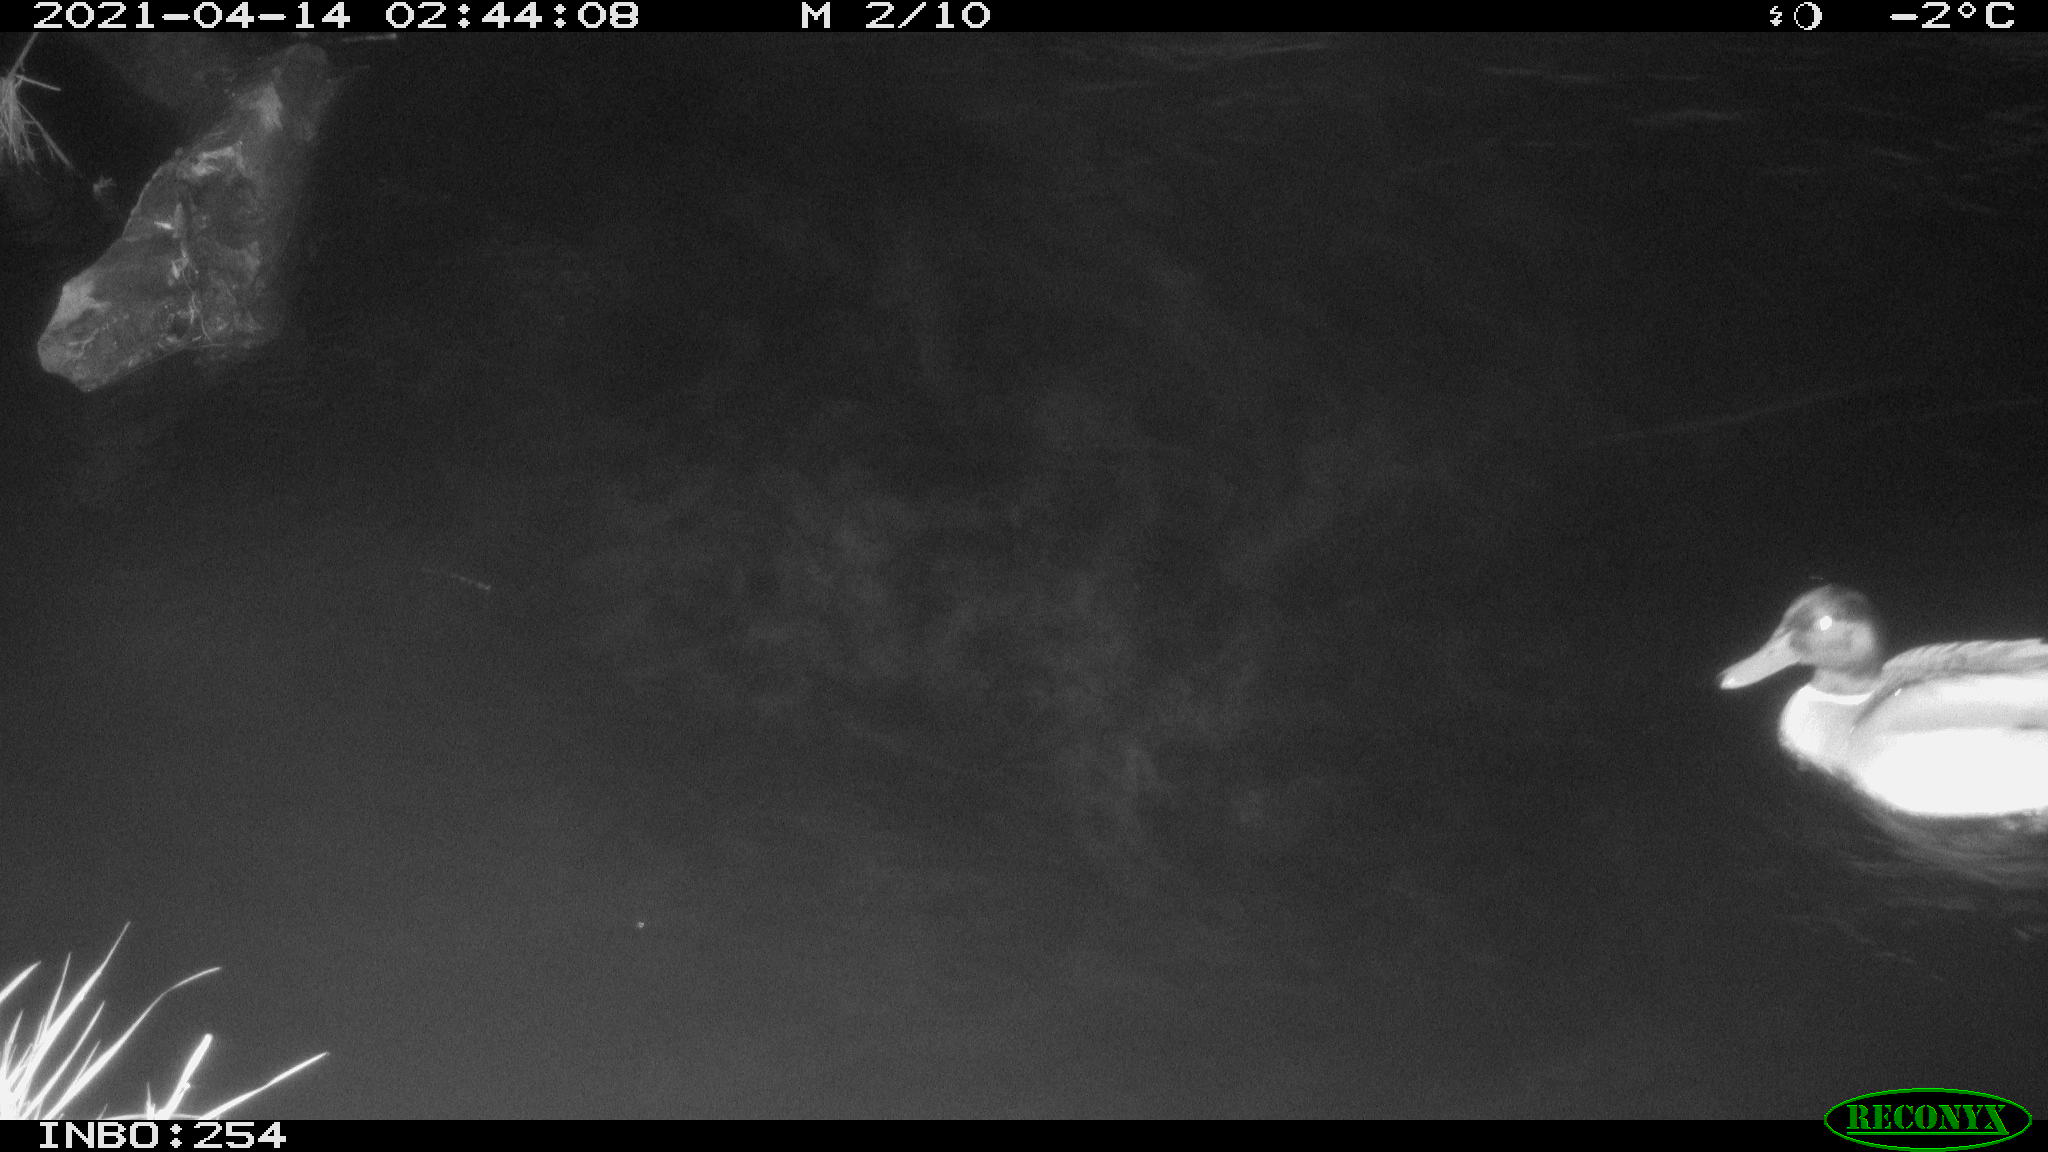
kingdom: Animalia
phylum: Chordata
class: Aves
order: Anseriformes
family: Anatidae
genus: Anas
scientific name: Anas
